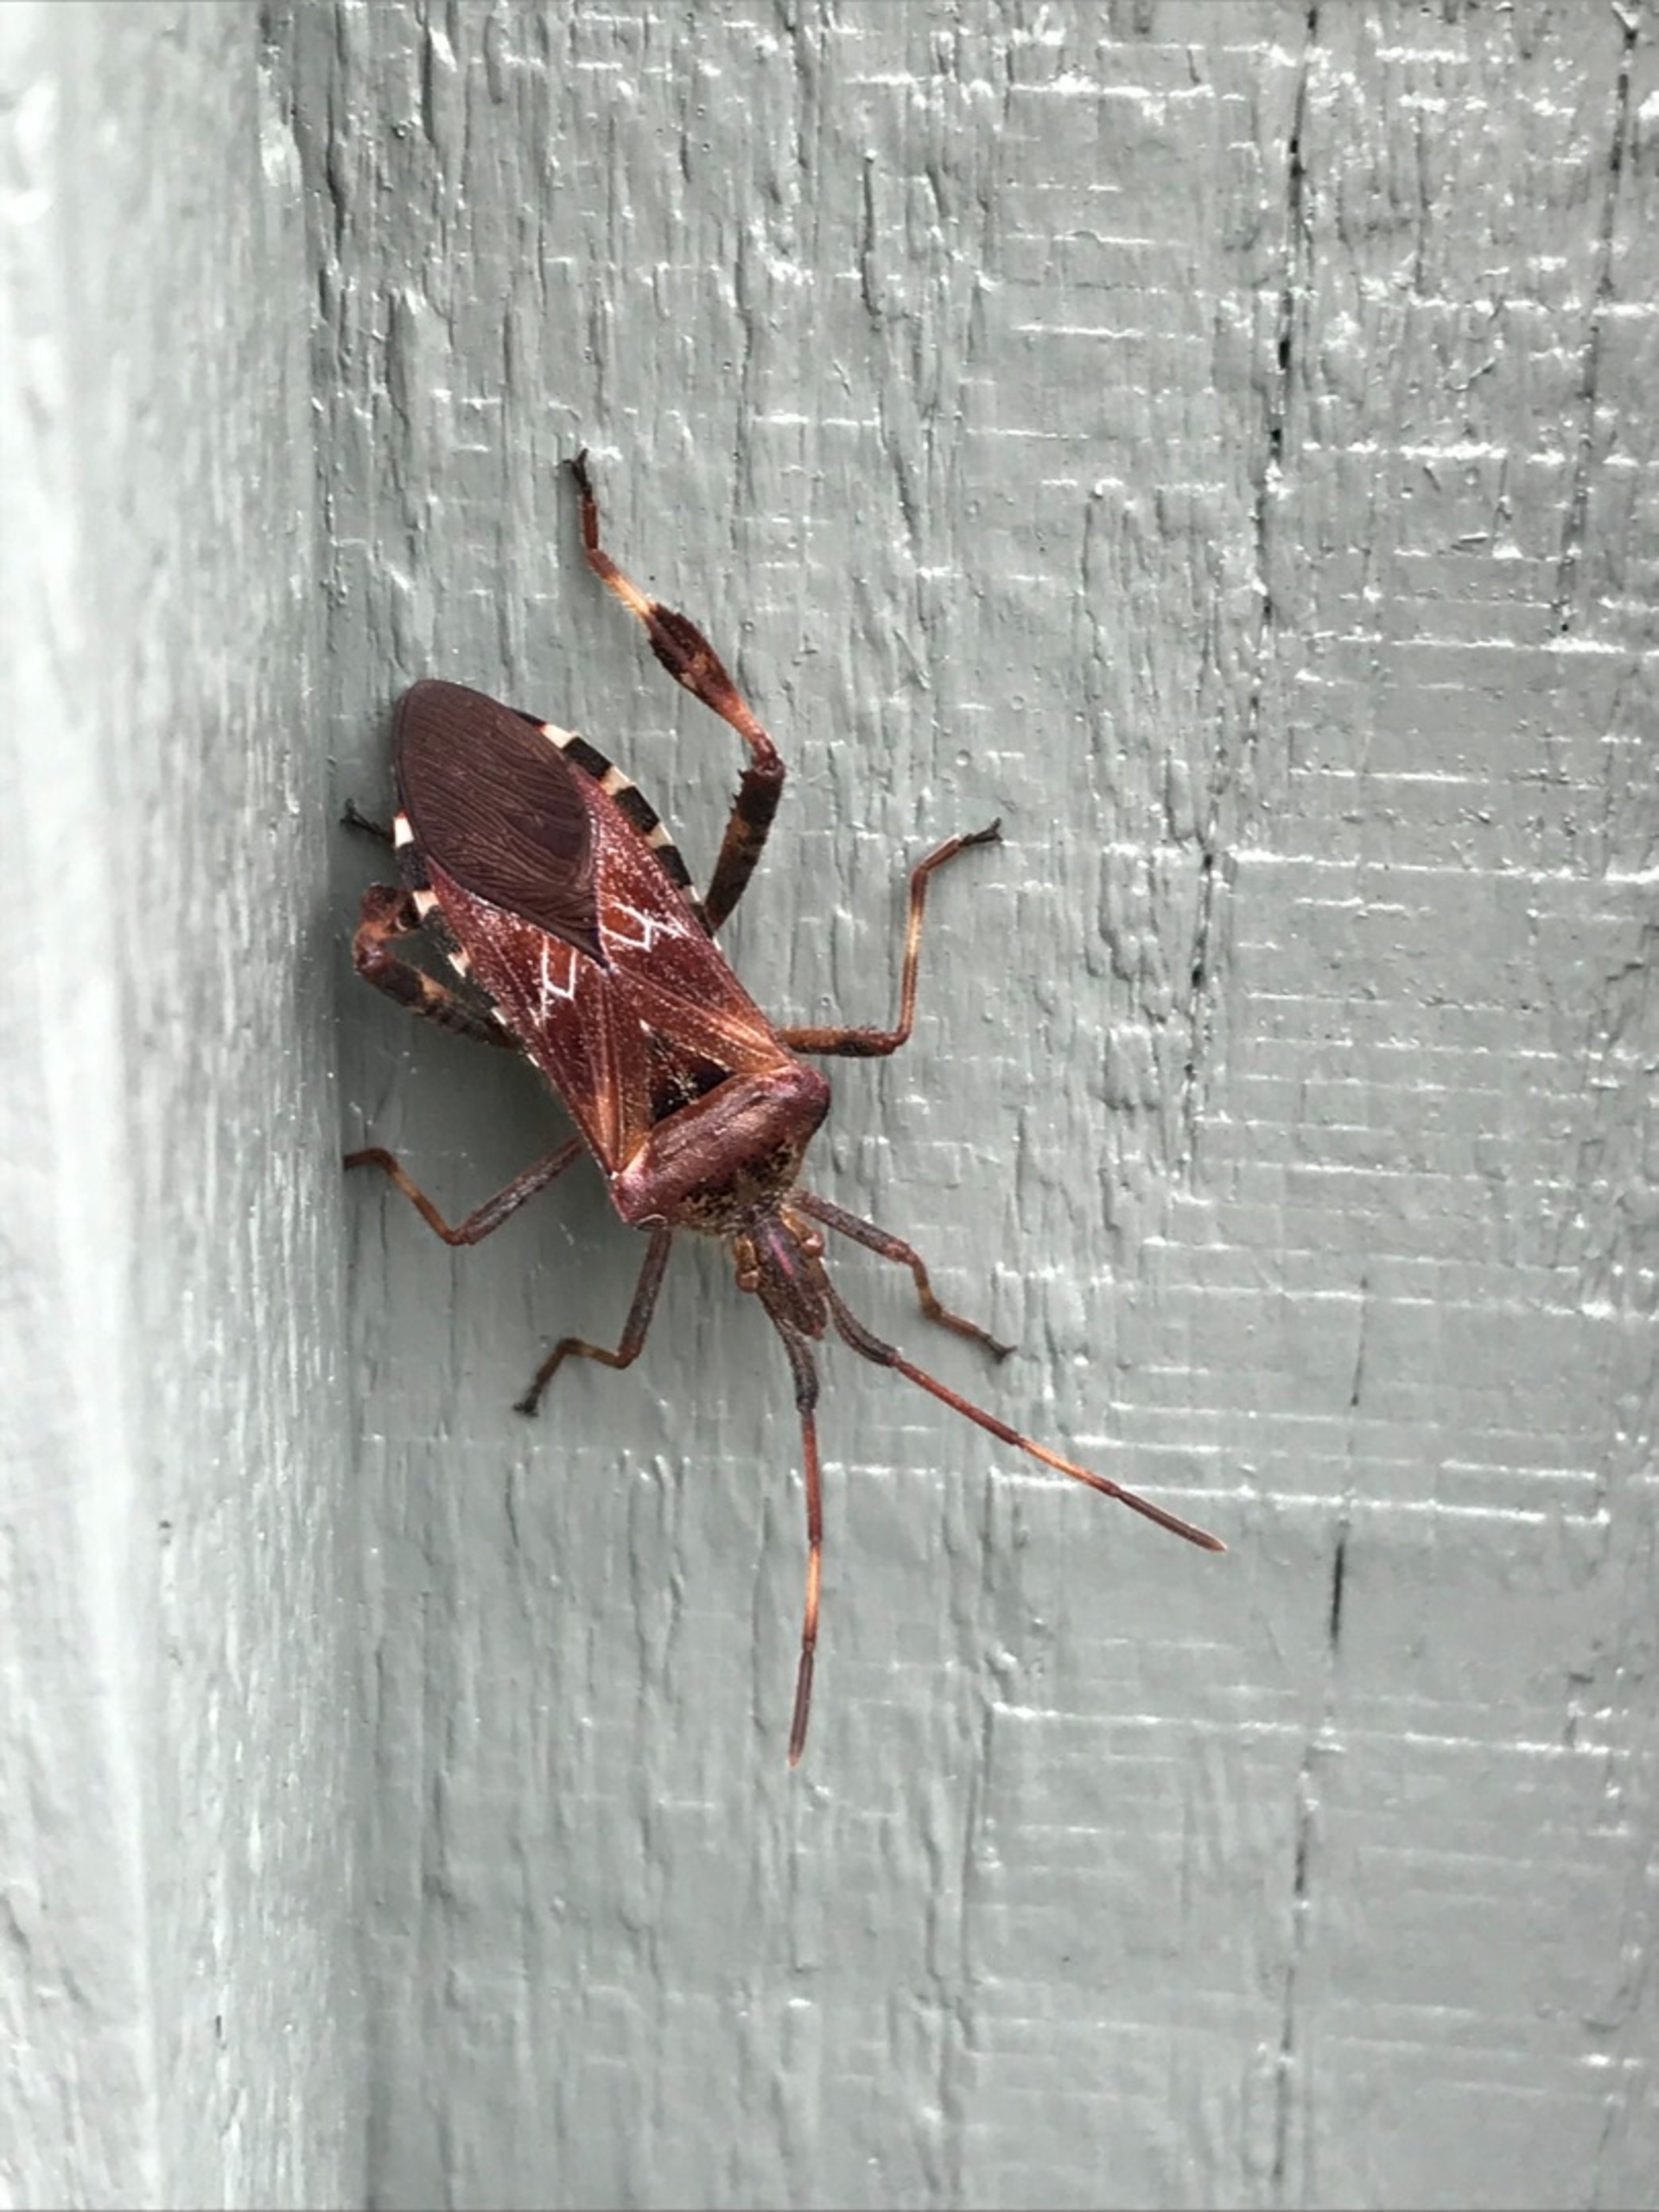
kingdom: Animalia
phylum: Arthropoda
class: Insecta
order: Hemiptera
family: Coreidae
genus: Leptoglossus
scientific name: Leptoglossus occidentalis
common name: Amerikansk fyrretæge
